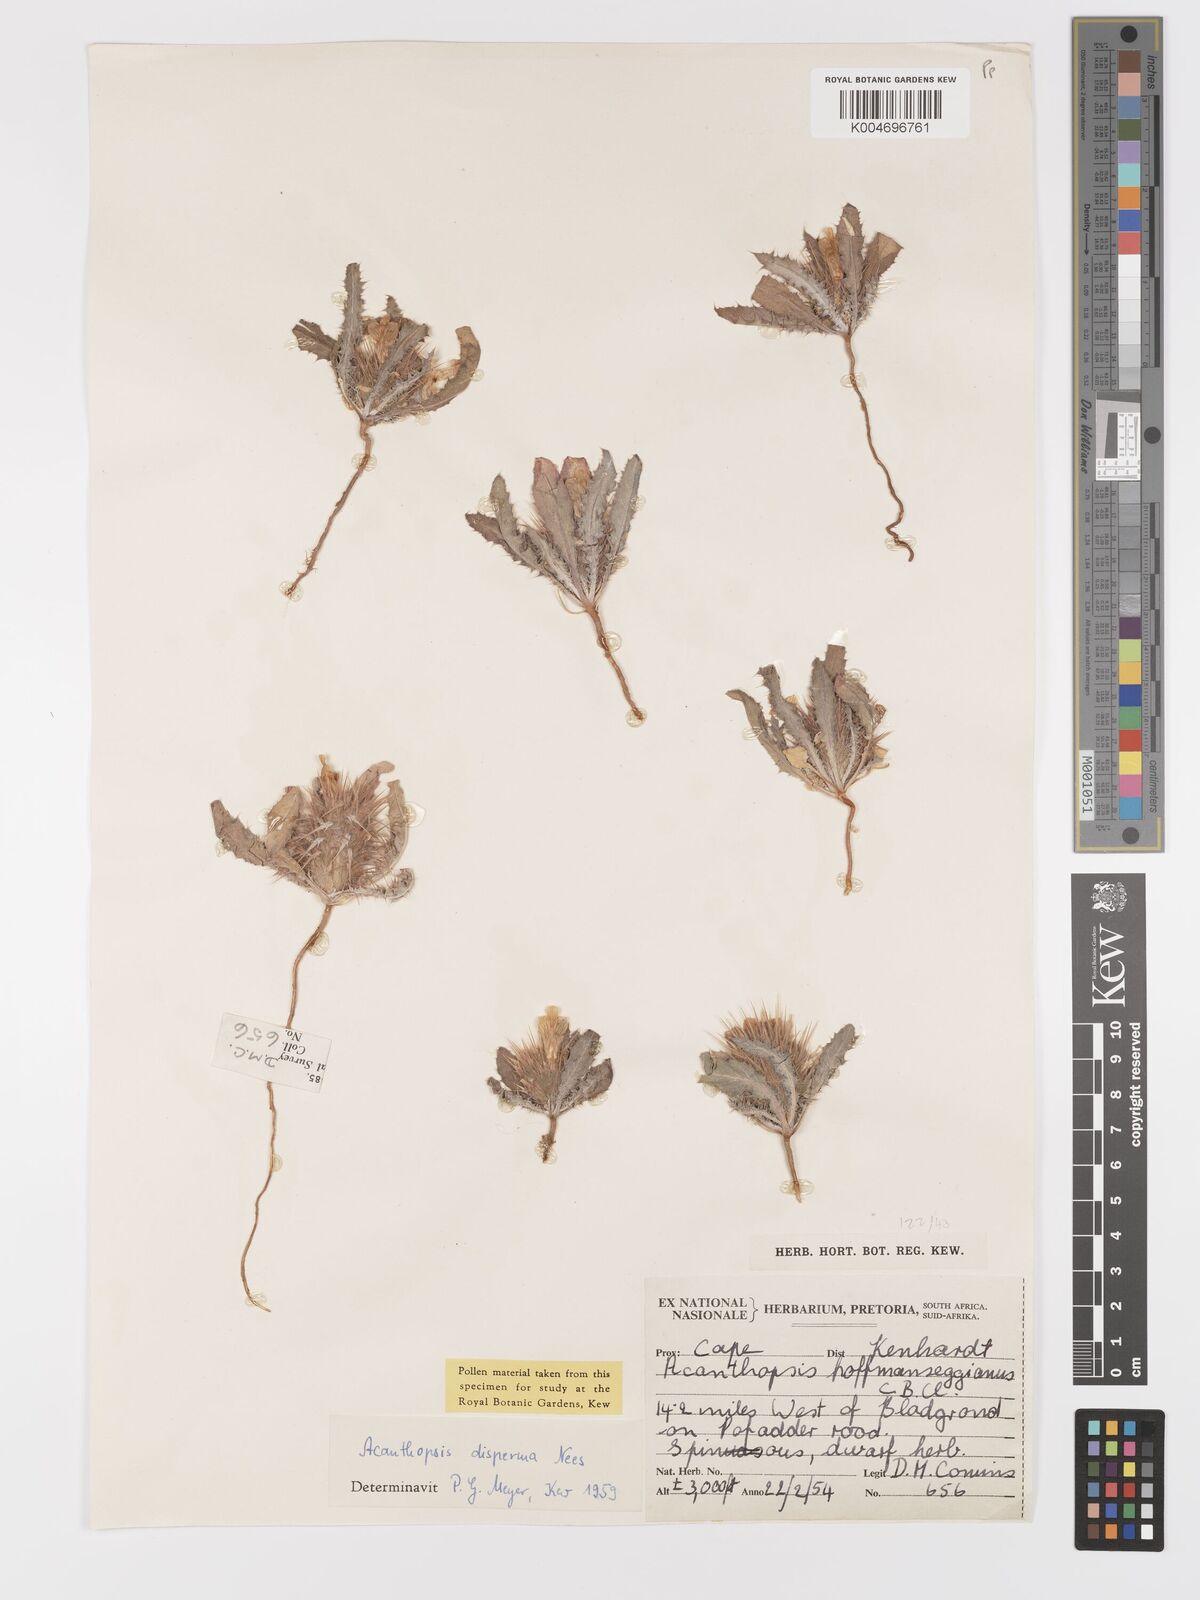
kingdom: Plantae
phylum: Tracheophyta
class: Magnoliopsida
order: Lamiales
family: Acanthaceae
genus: Acanthopsis
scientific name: Acanthopsis disperma
